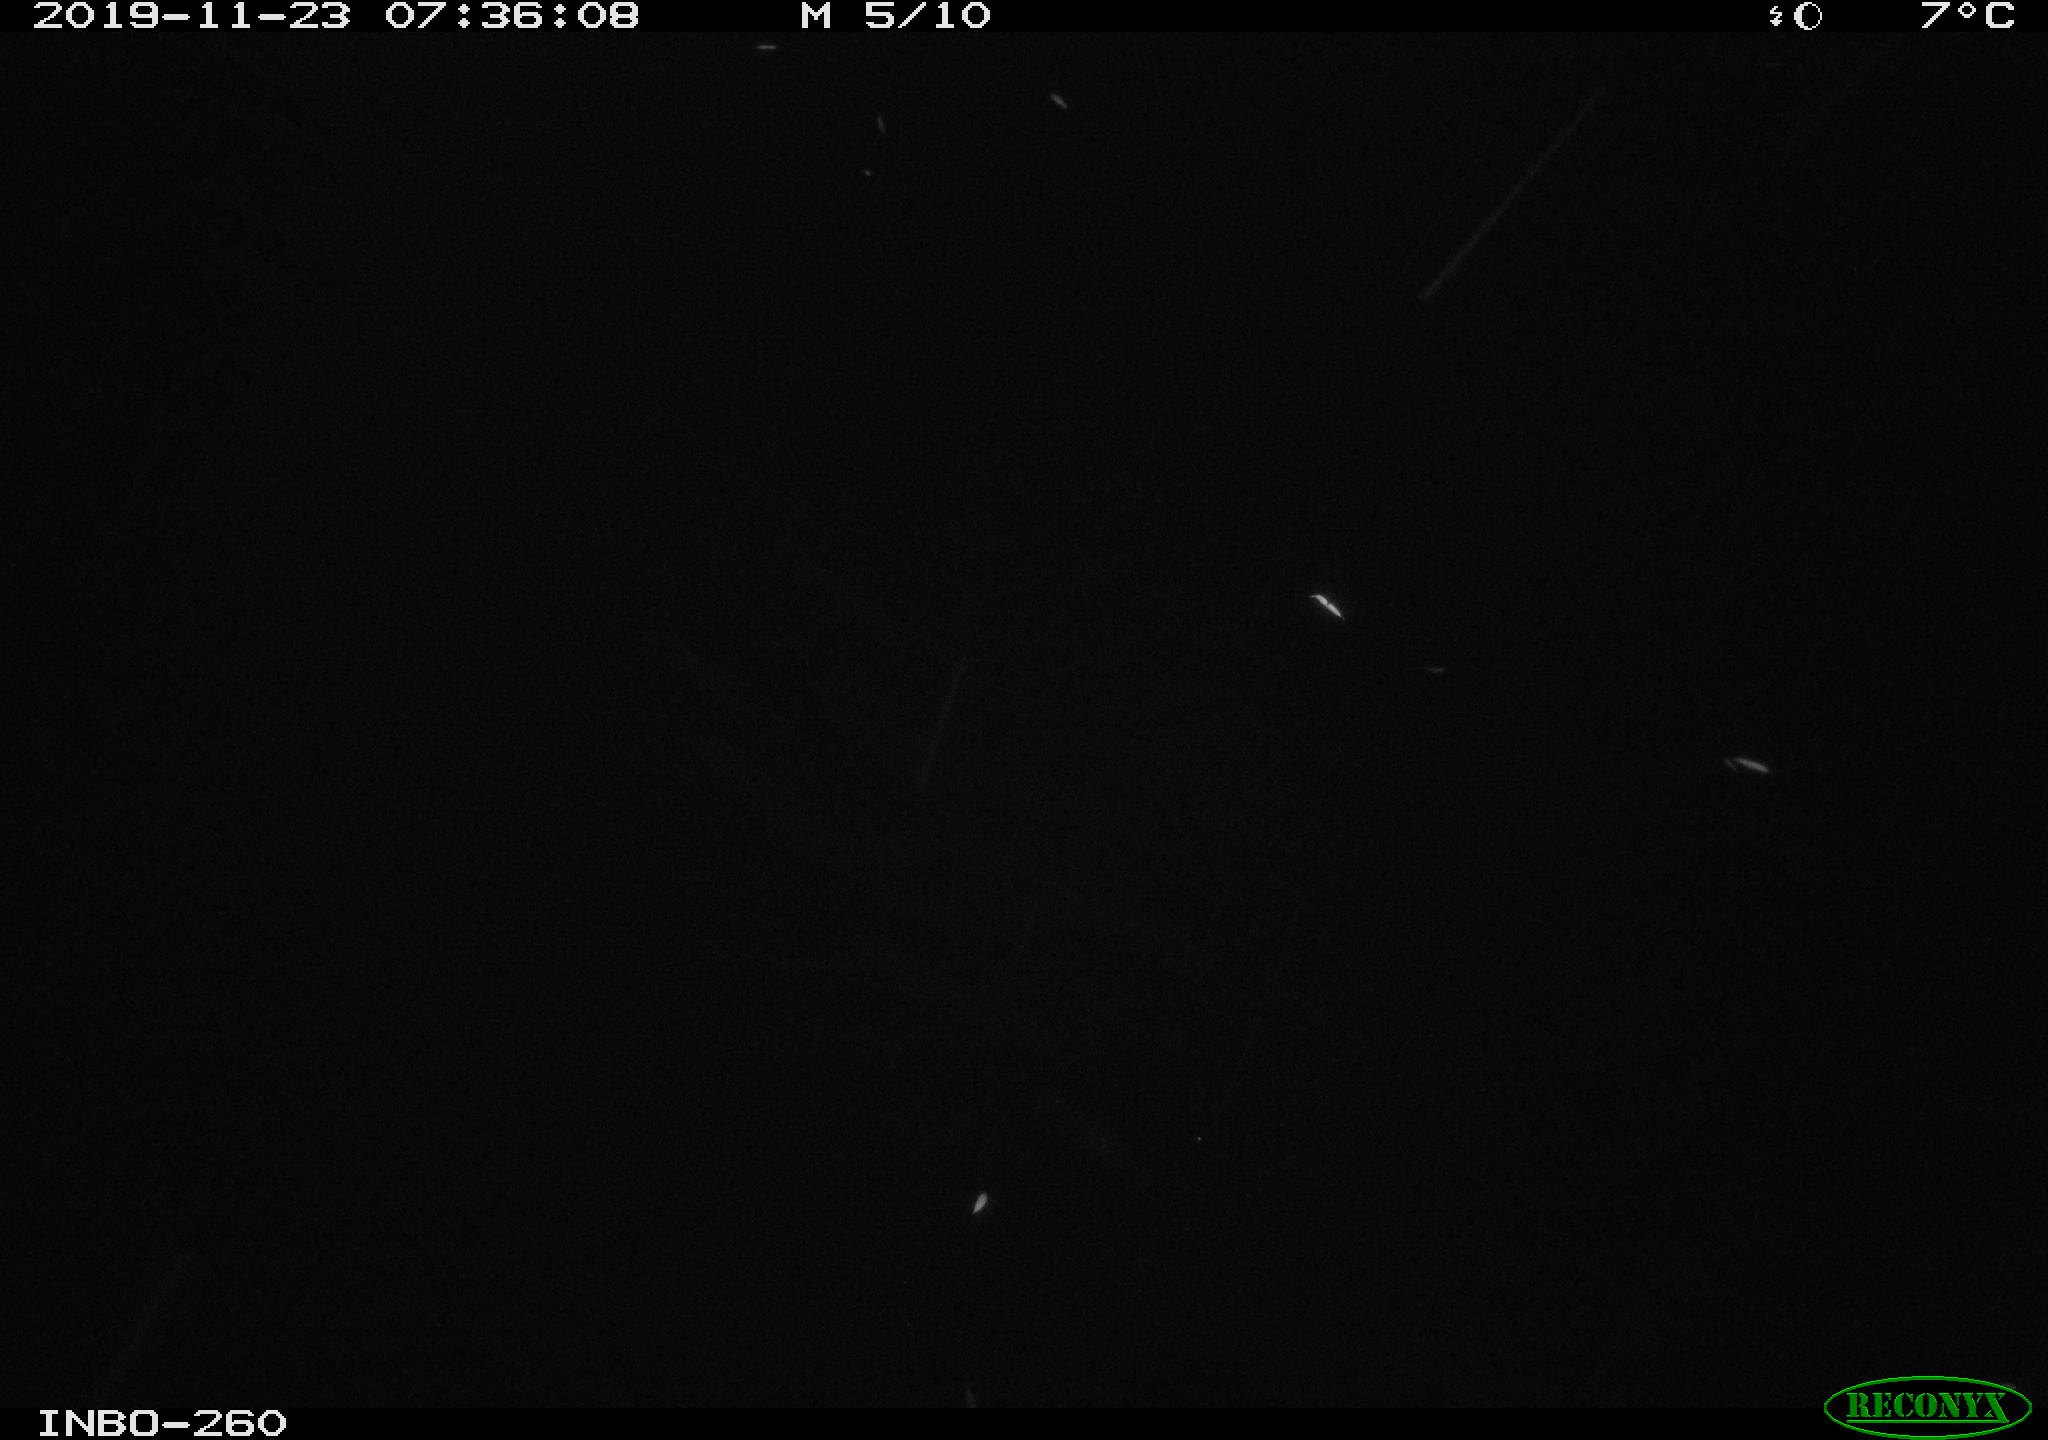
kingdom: Animalia
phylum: Chordata
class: Aves
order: Anseriformes
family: Anatidae
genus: Anas
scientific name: Anas platyrhynchos
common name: Mallard
